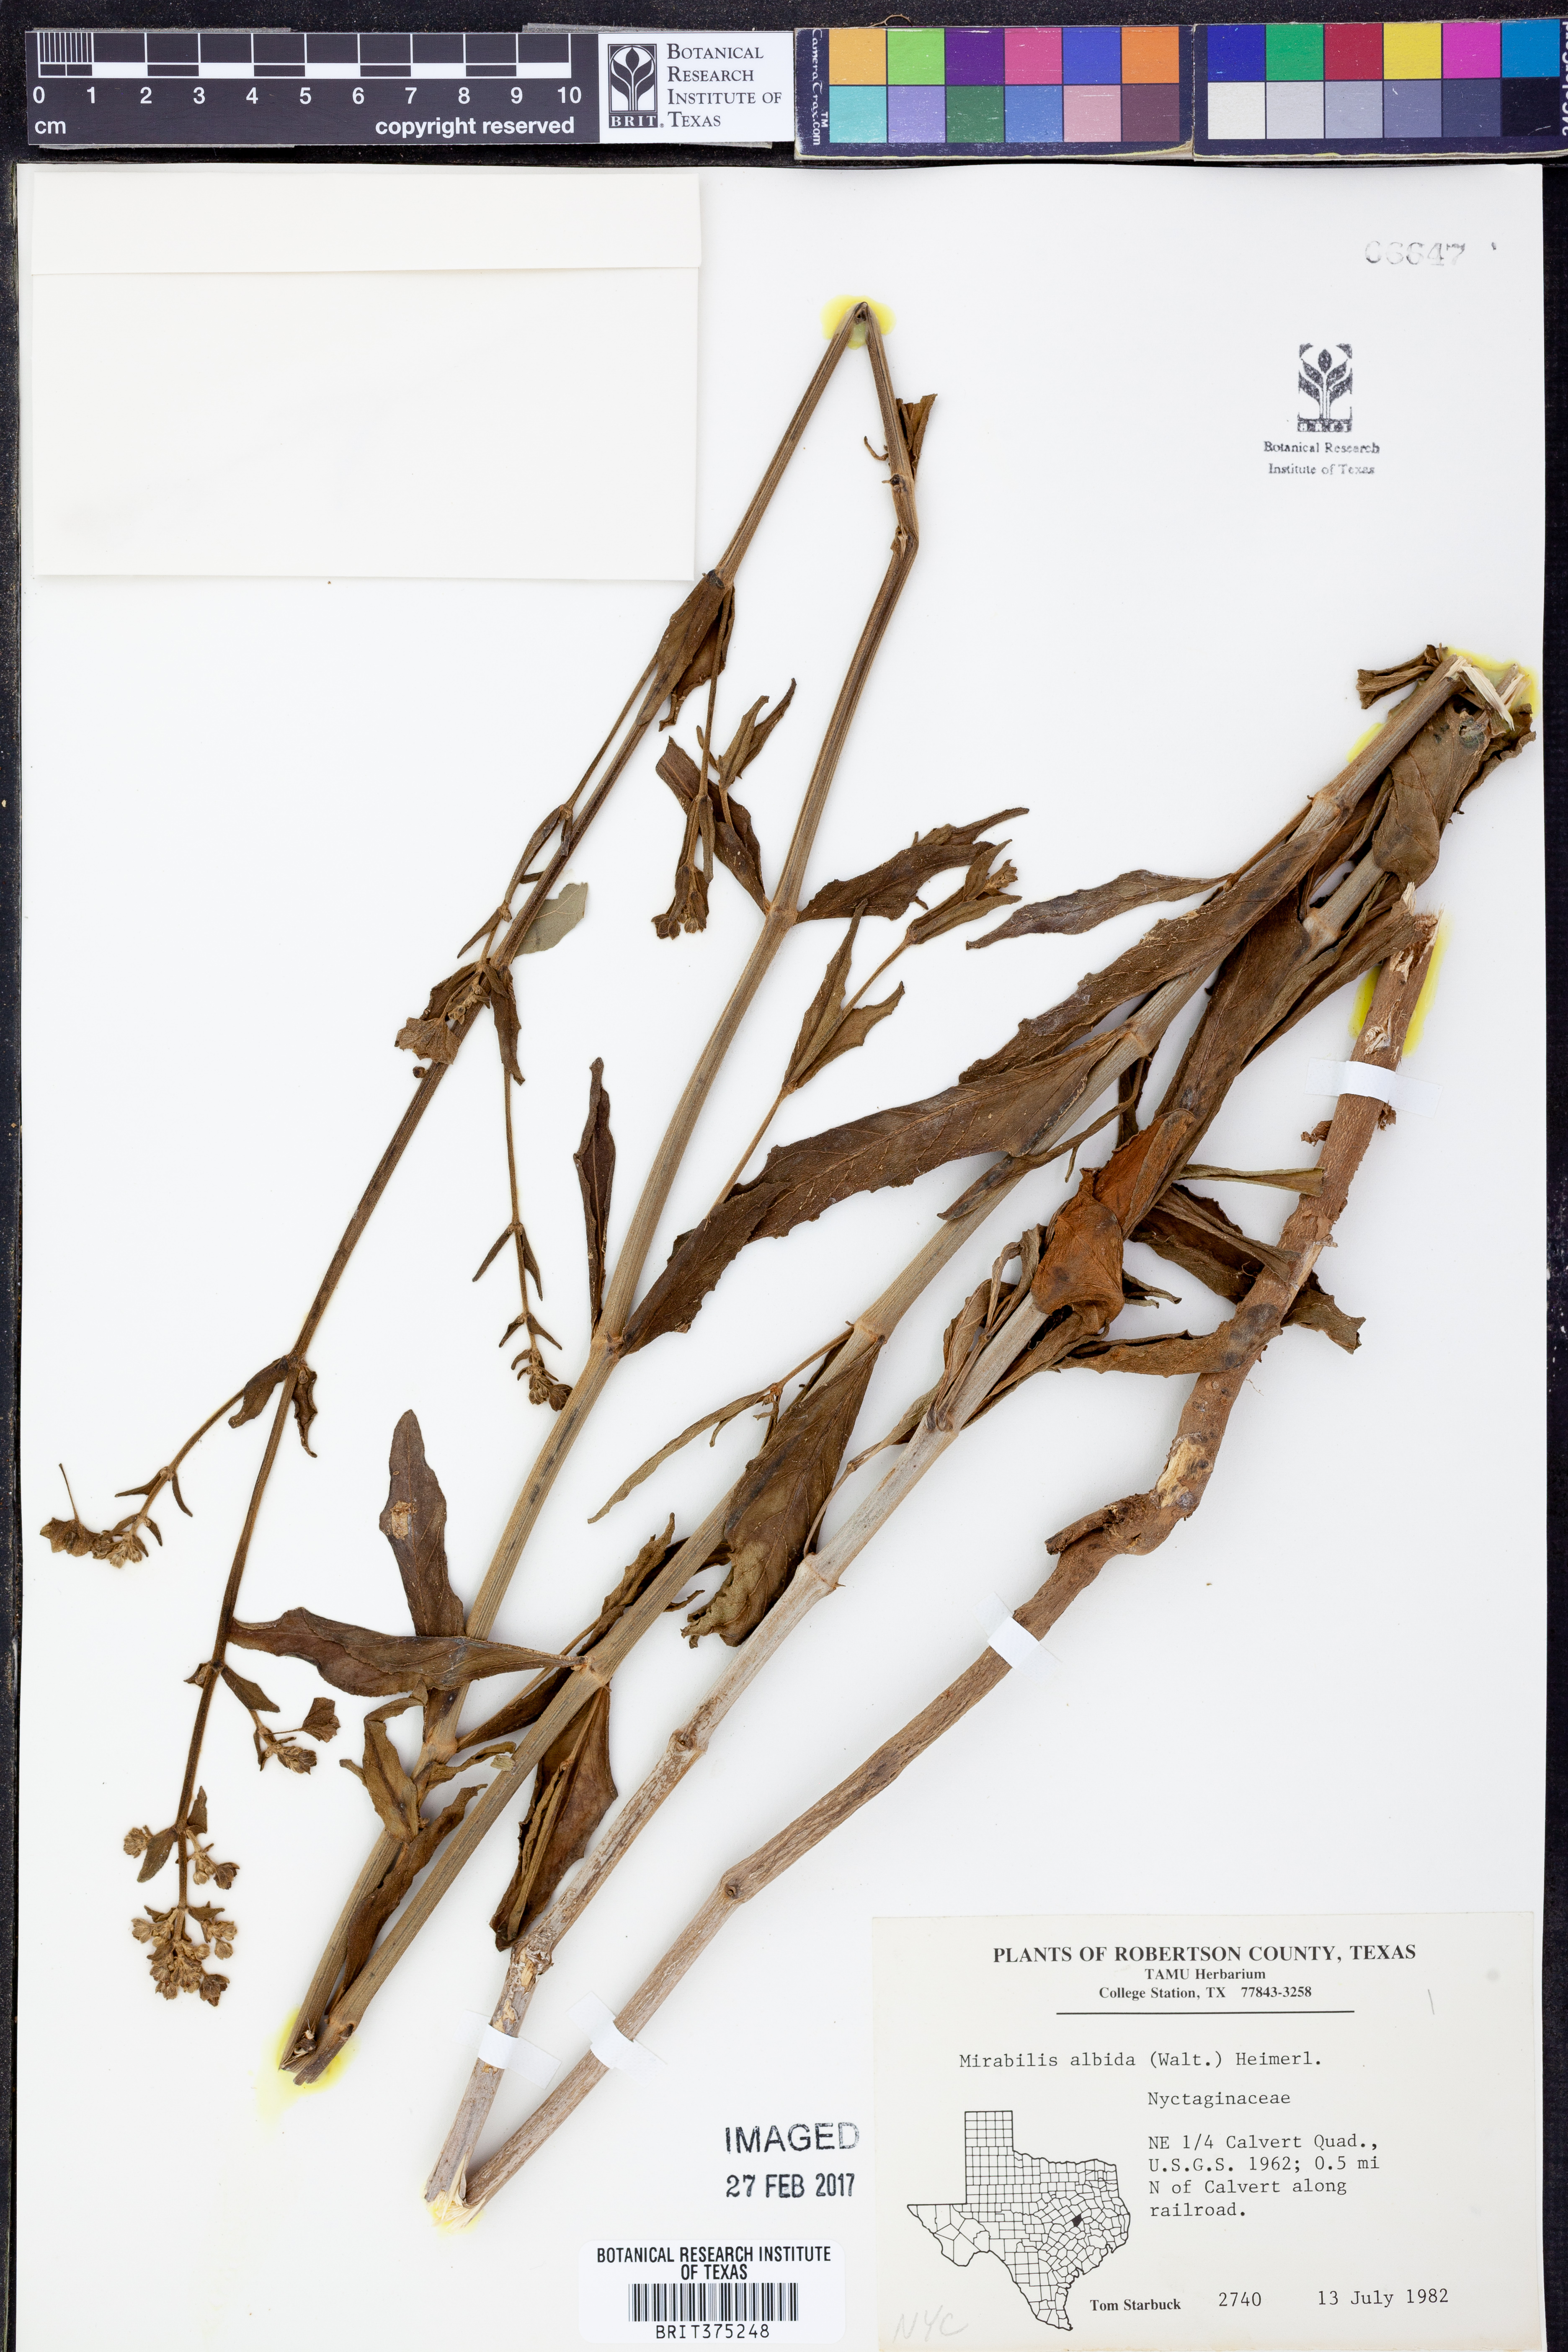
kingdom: Plantae
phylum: Tracheophyta
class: Magnoliopsida
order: Caryophyllales
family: Nyctaginaceae
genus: Mirabilis
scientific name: Mirabilis albida
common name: Hairy four-o'clock
